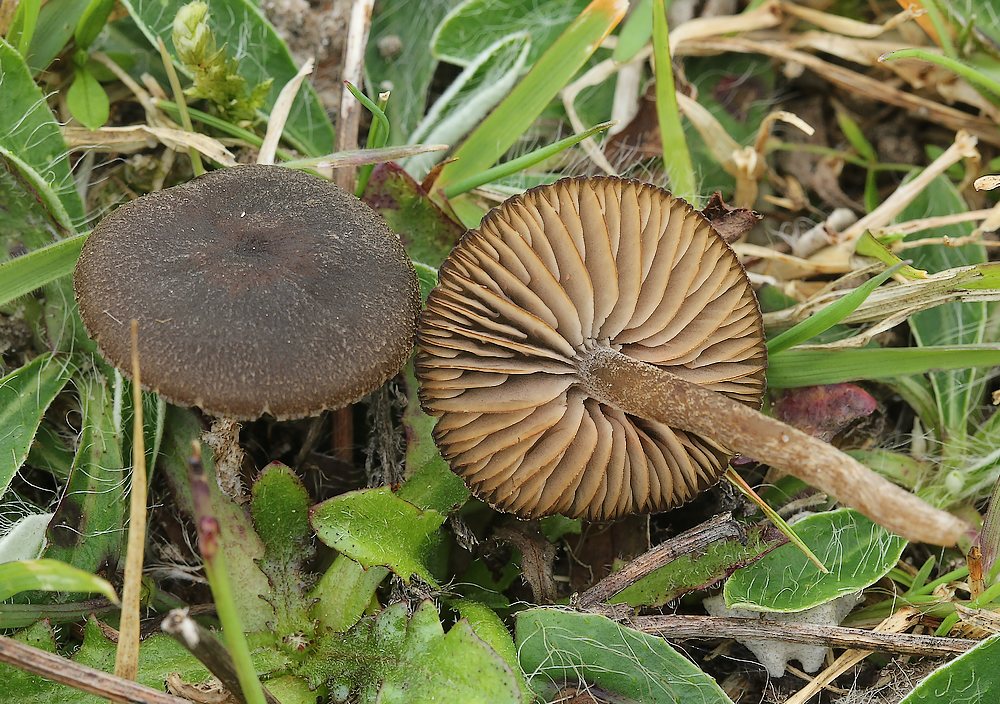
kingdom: Fungi
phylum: Basidiomycota
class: Agaricomycetes
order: Agaricales
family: Entolomataceae
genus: Entoloma
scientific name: Entoloma
